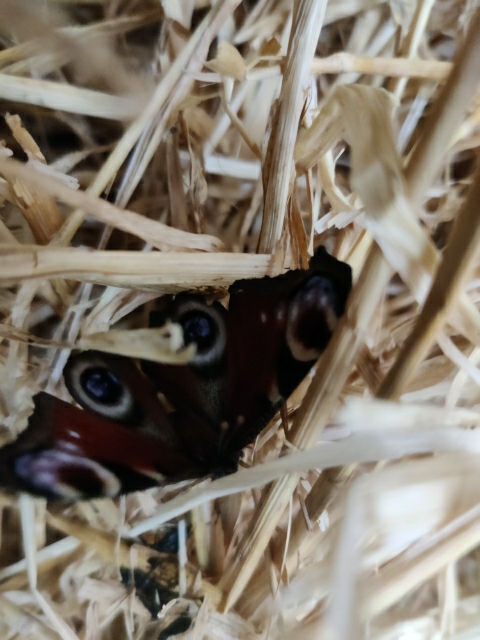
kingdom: Animalia
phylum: Arthropoda
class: Insecta
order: Lepidoptera
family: Nymphalidae
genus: Aglais
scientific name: Aglais io
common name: Dagpåfugleøje
